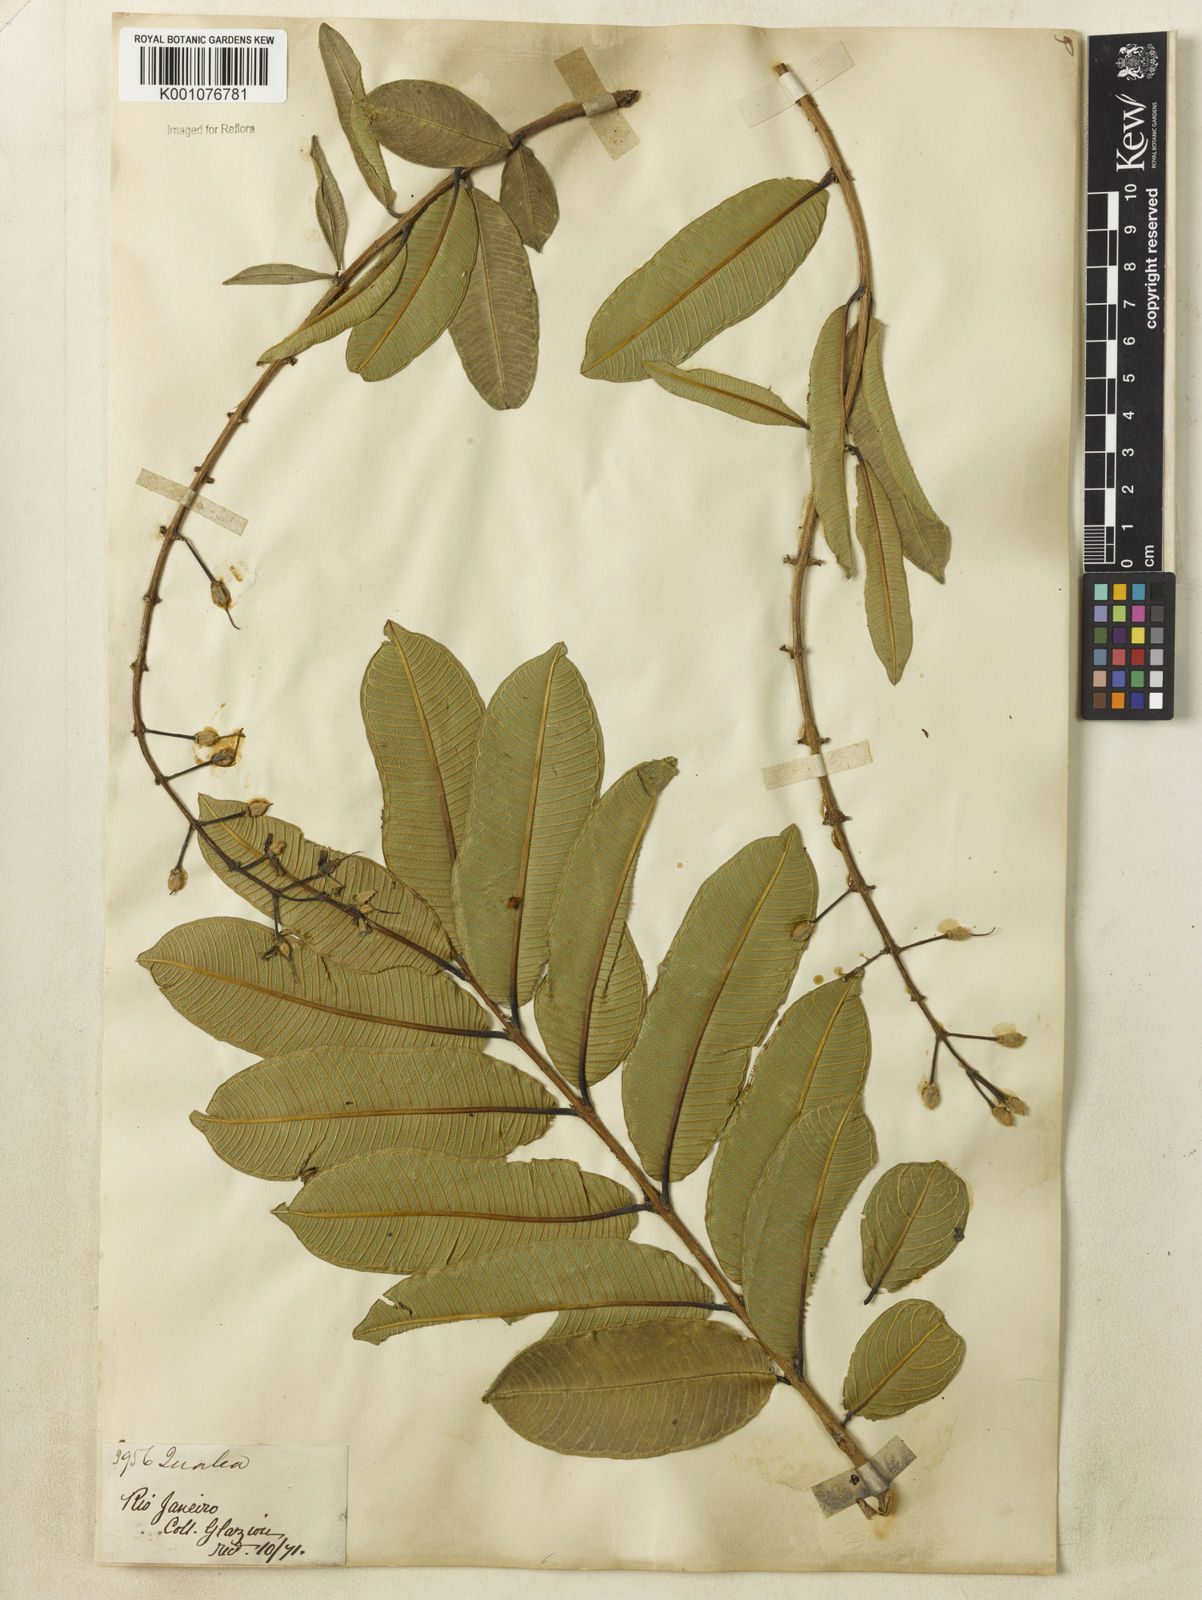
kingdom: Plantae
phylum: Tracheophyta
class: Magnoliopsida
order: Myrtales
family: Vochysiaceae
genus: Qualea
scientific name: Qualea multiflora
